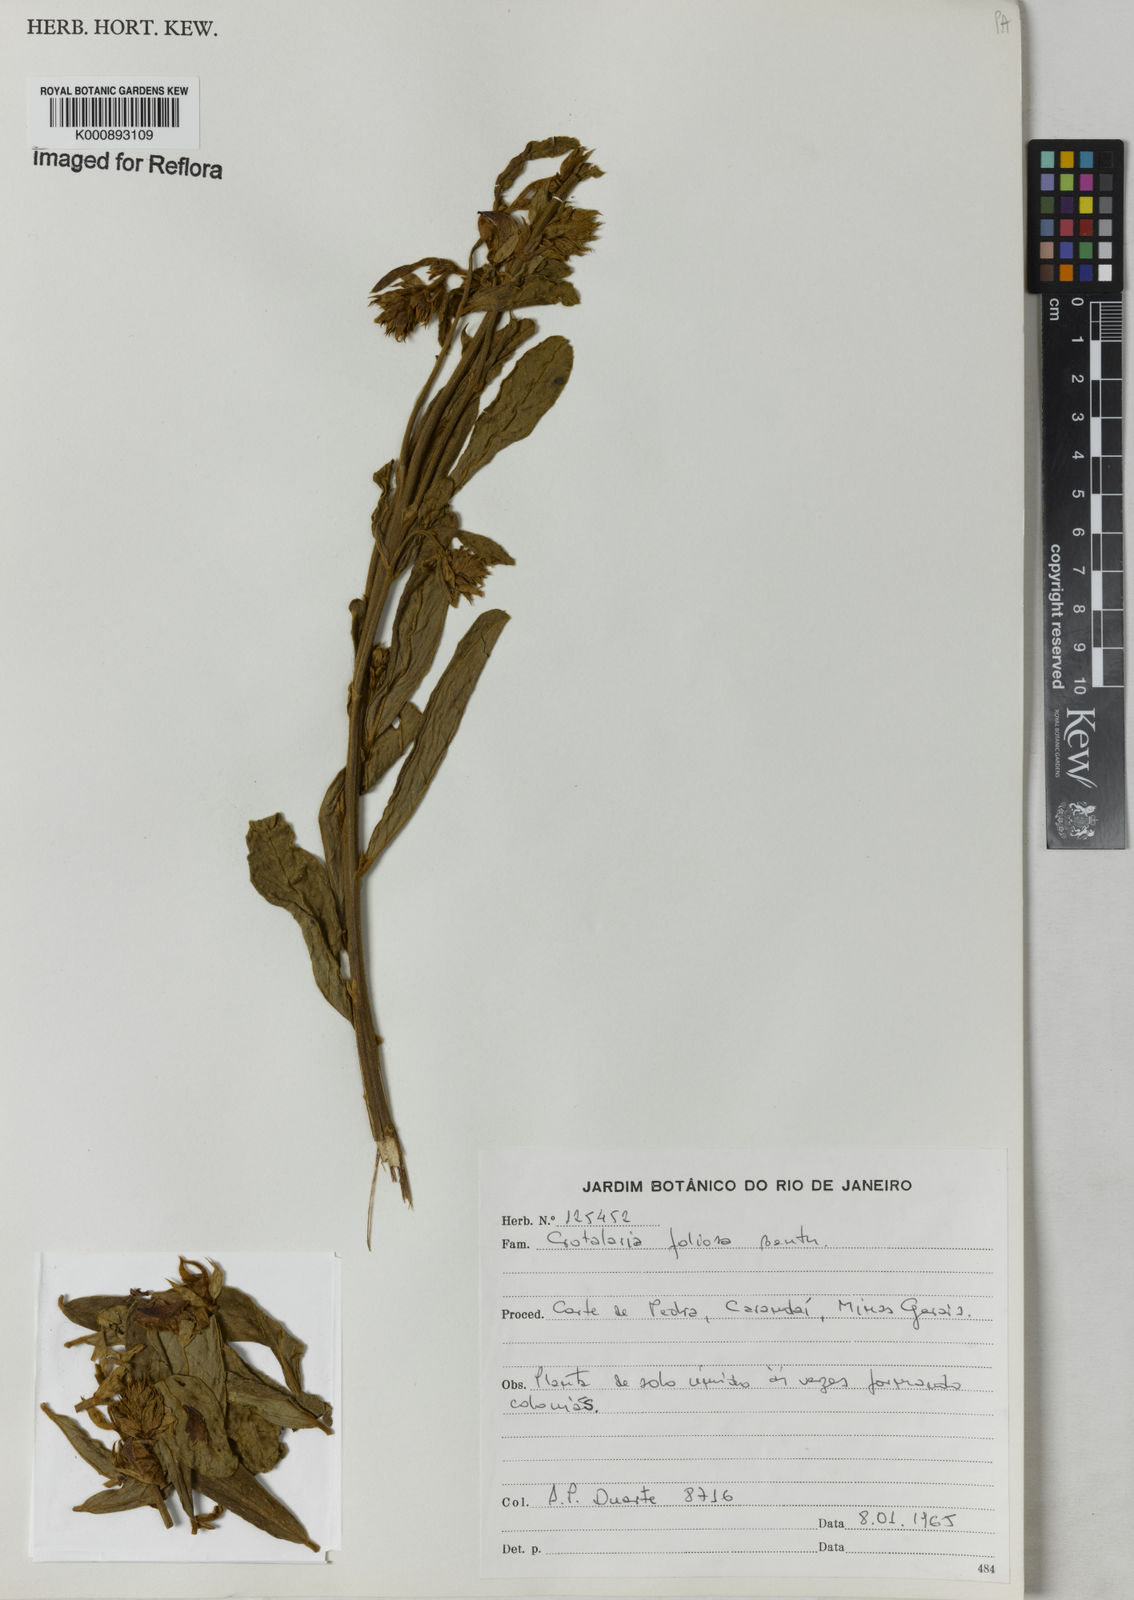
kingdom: Plantae
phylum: Tracheophyta
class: Magnoliopsida
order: Fabales
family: Fabaceae
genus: Crotalaria
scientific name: Crotalaria martiana
